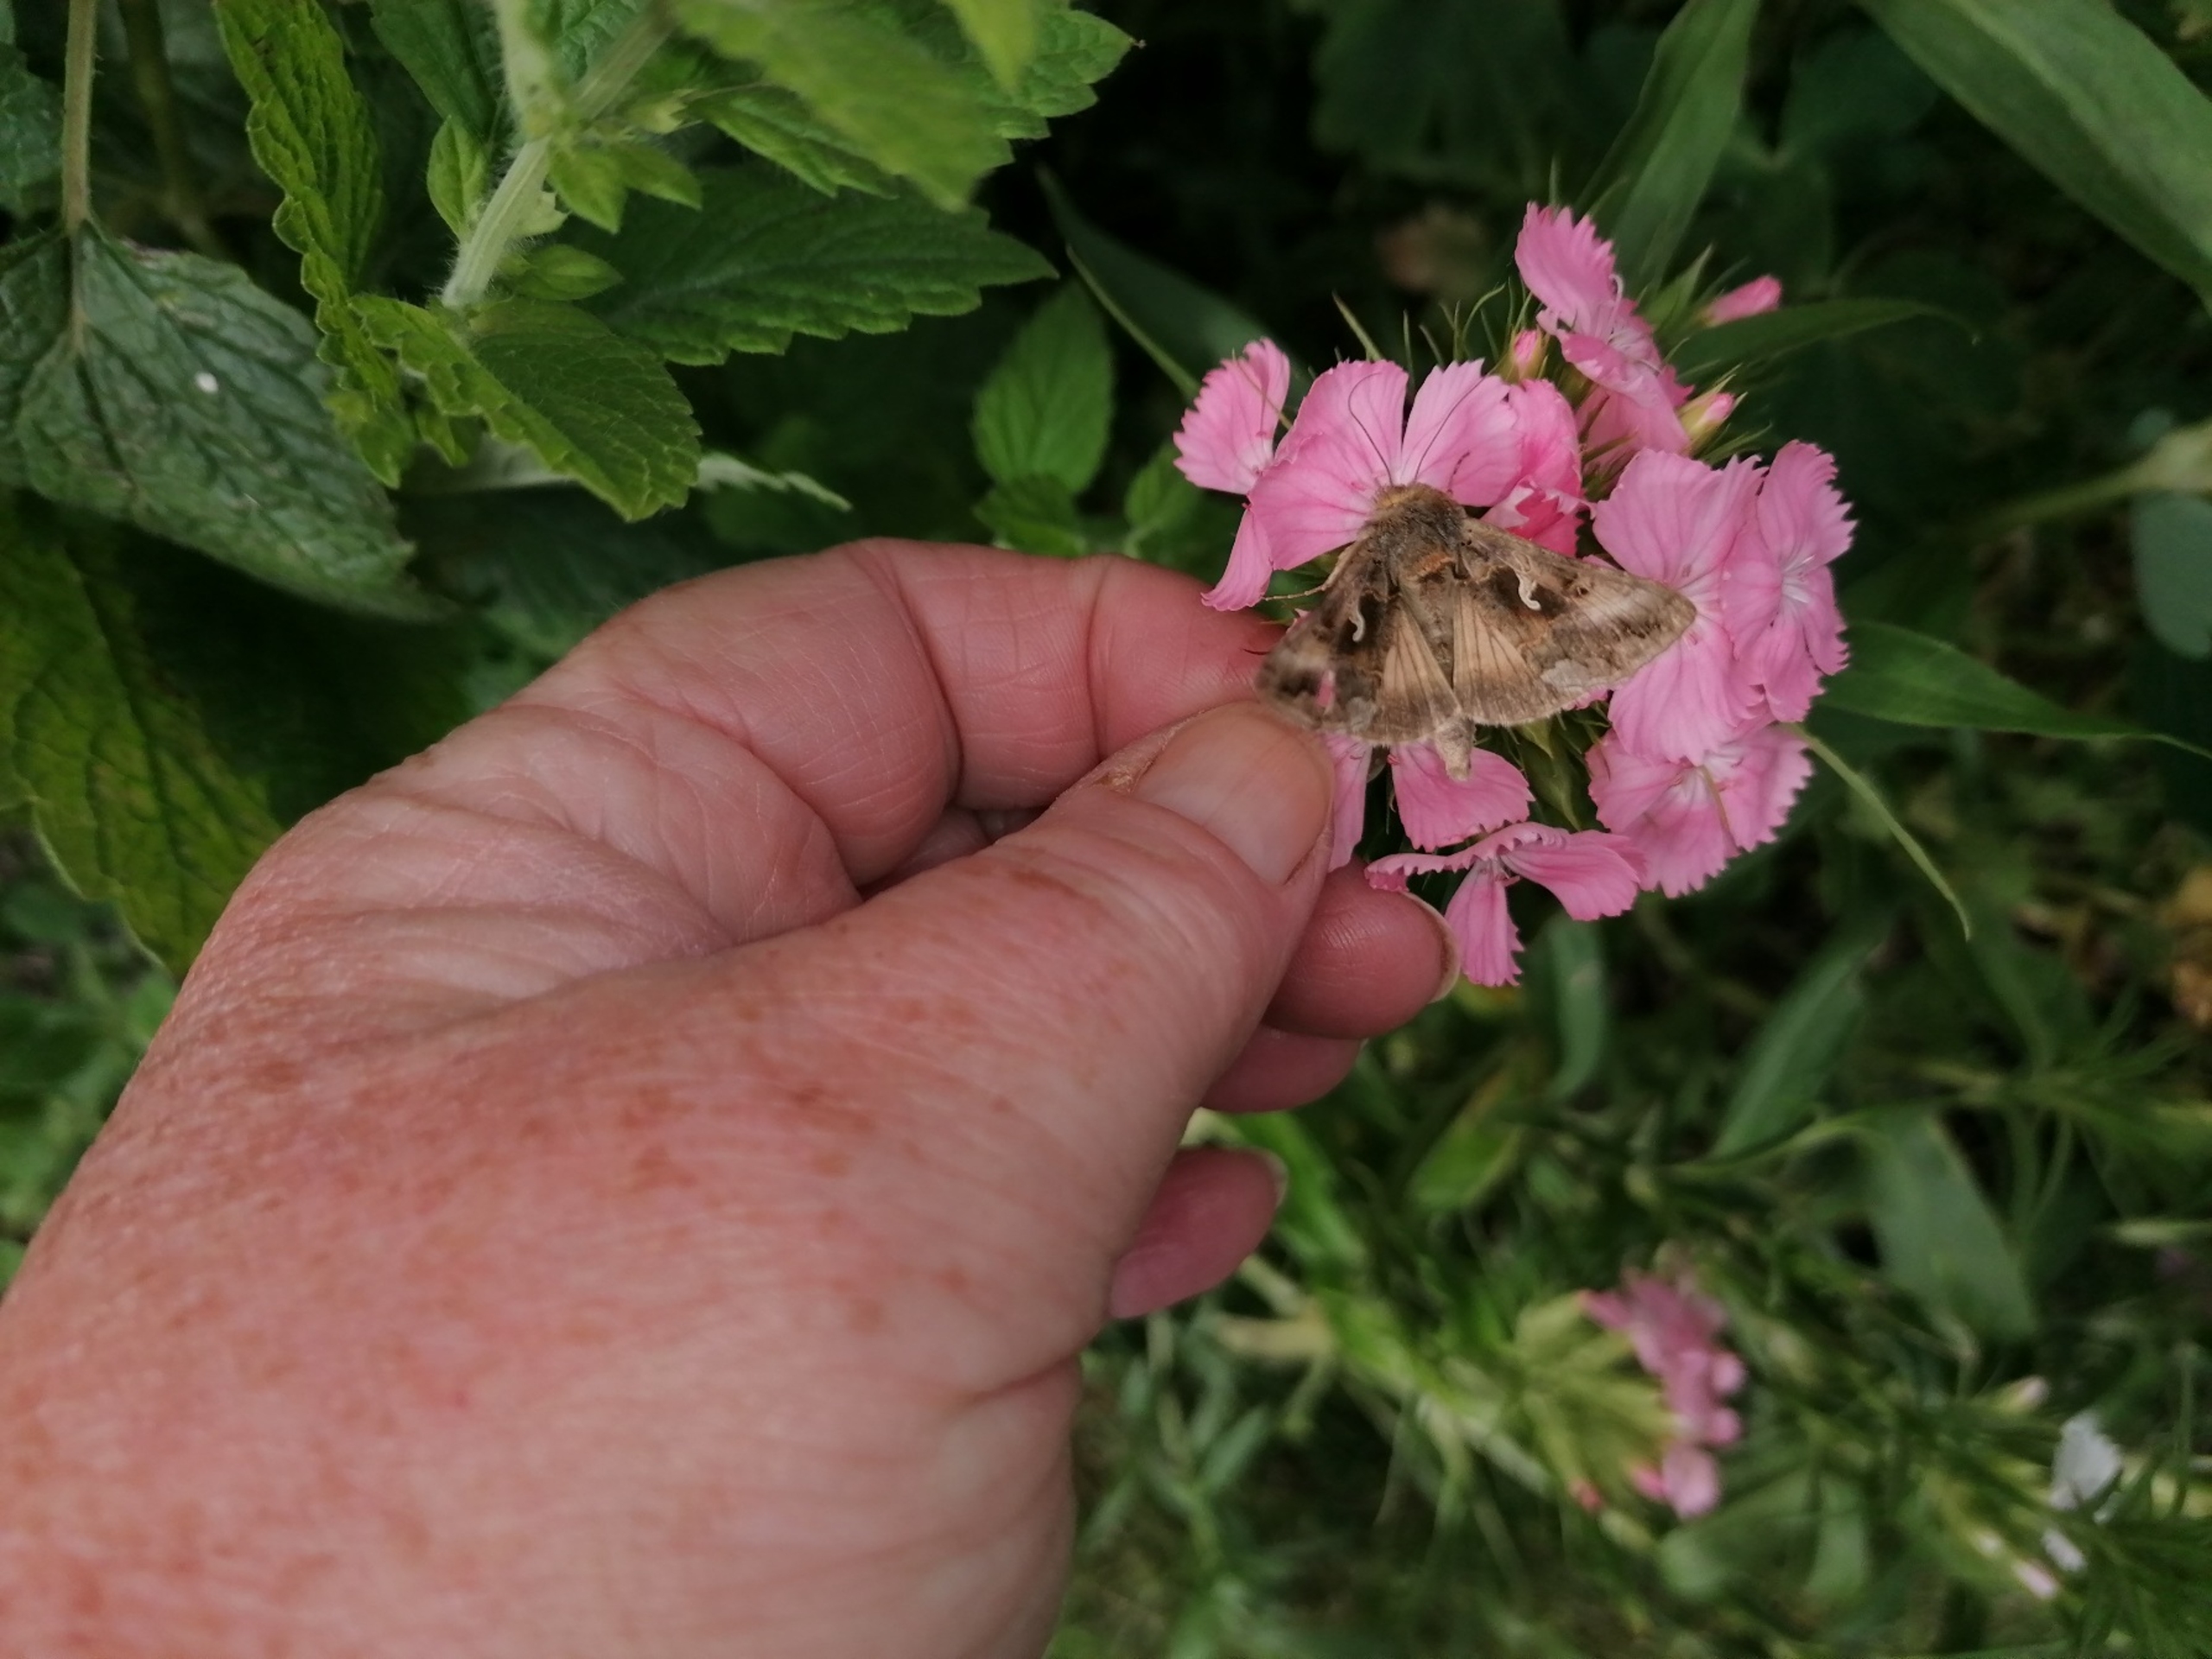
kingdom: Animalia
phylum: Arthropoda
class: Insecta
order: Lepidoptera
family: Noctuidae
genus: Autographa
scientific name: Autographa gamma
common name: Gammaugle
